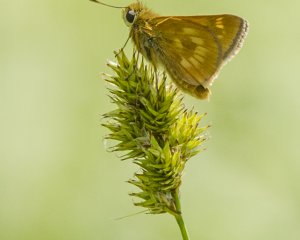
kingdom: Animalia
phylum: Arthropoda
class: Insecta
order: Lepidoptera
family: Hesperiidae
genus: Polites
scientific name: Polites
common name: Long Dash Skipper
